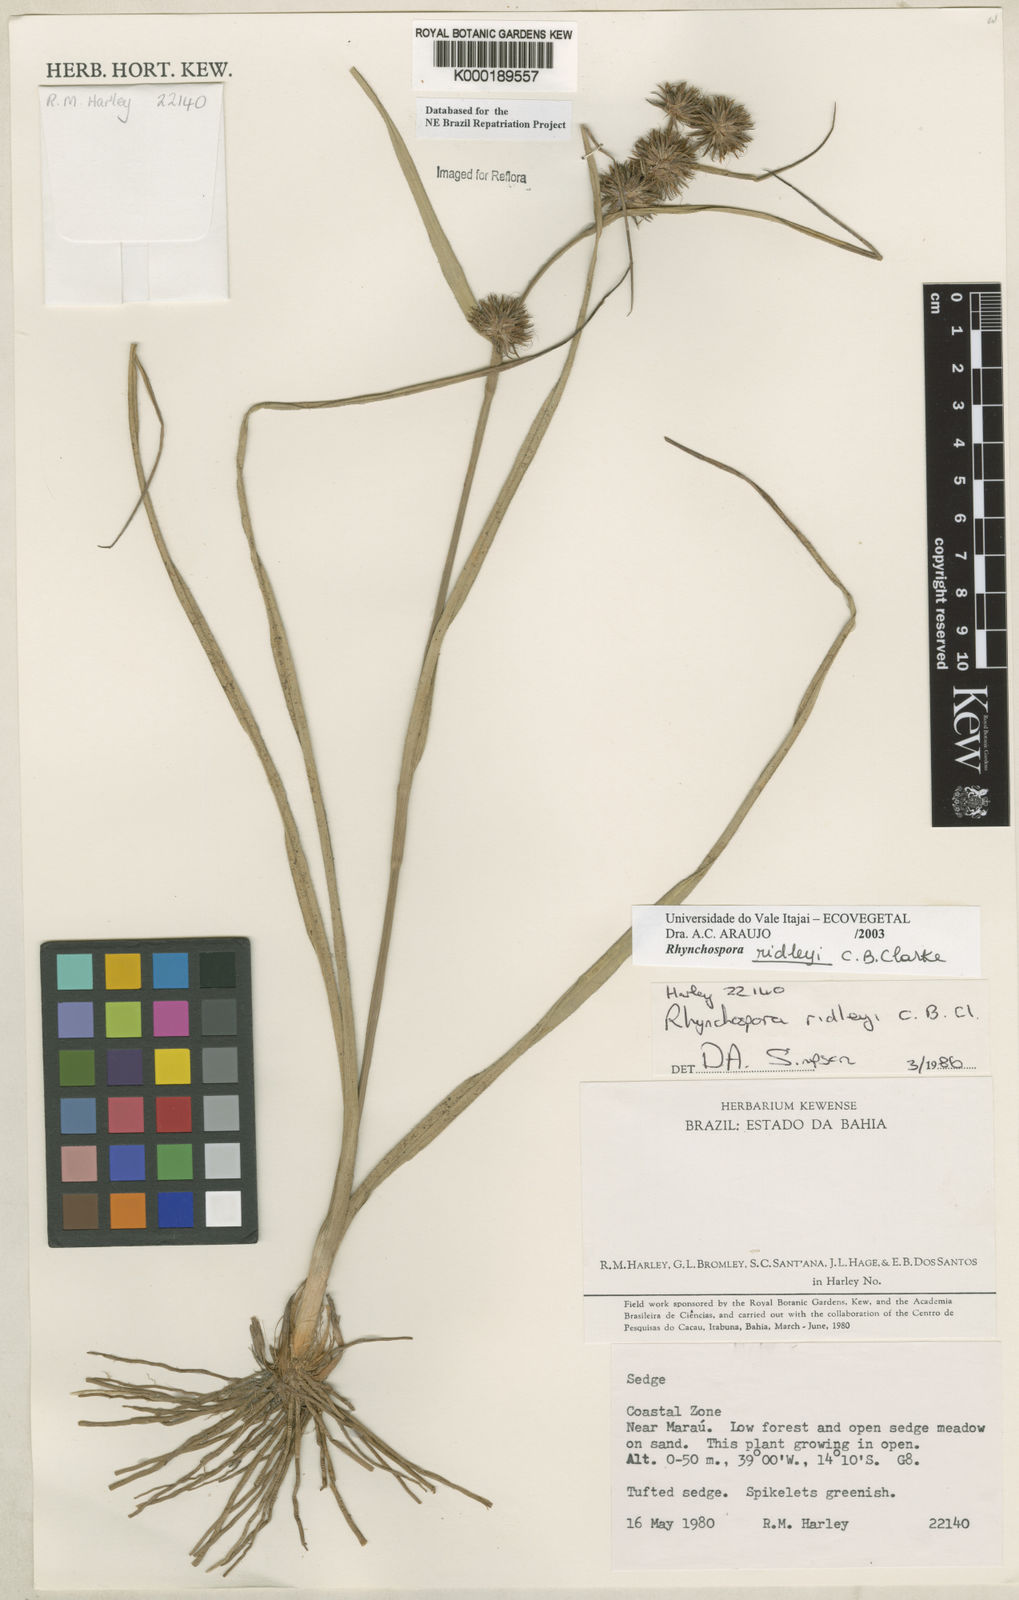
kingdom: Plantae
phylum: Tracheophyta
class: Liliopsida
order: Poales
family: Cyperaceae
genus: Rhynchospora
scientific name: Rhynchospora ridleyi
